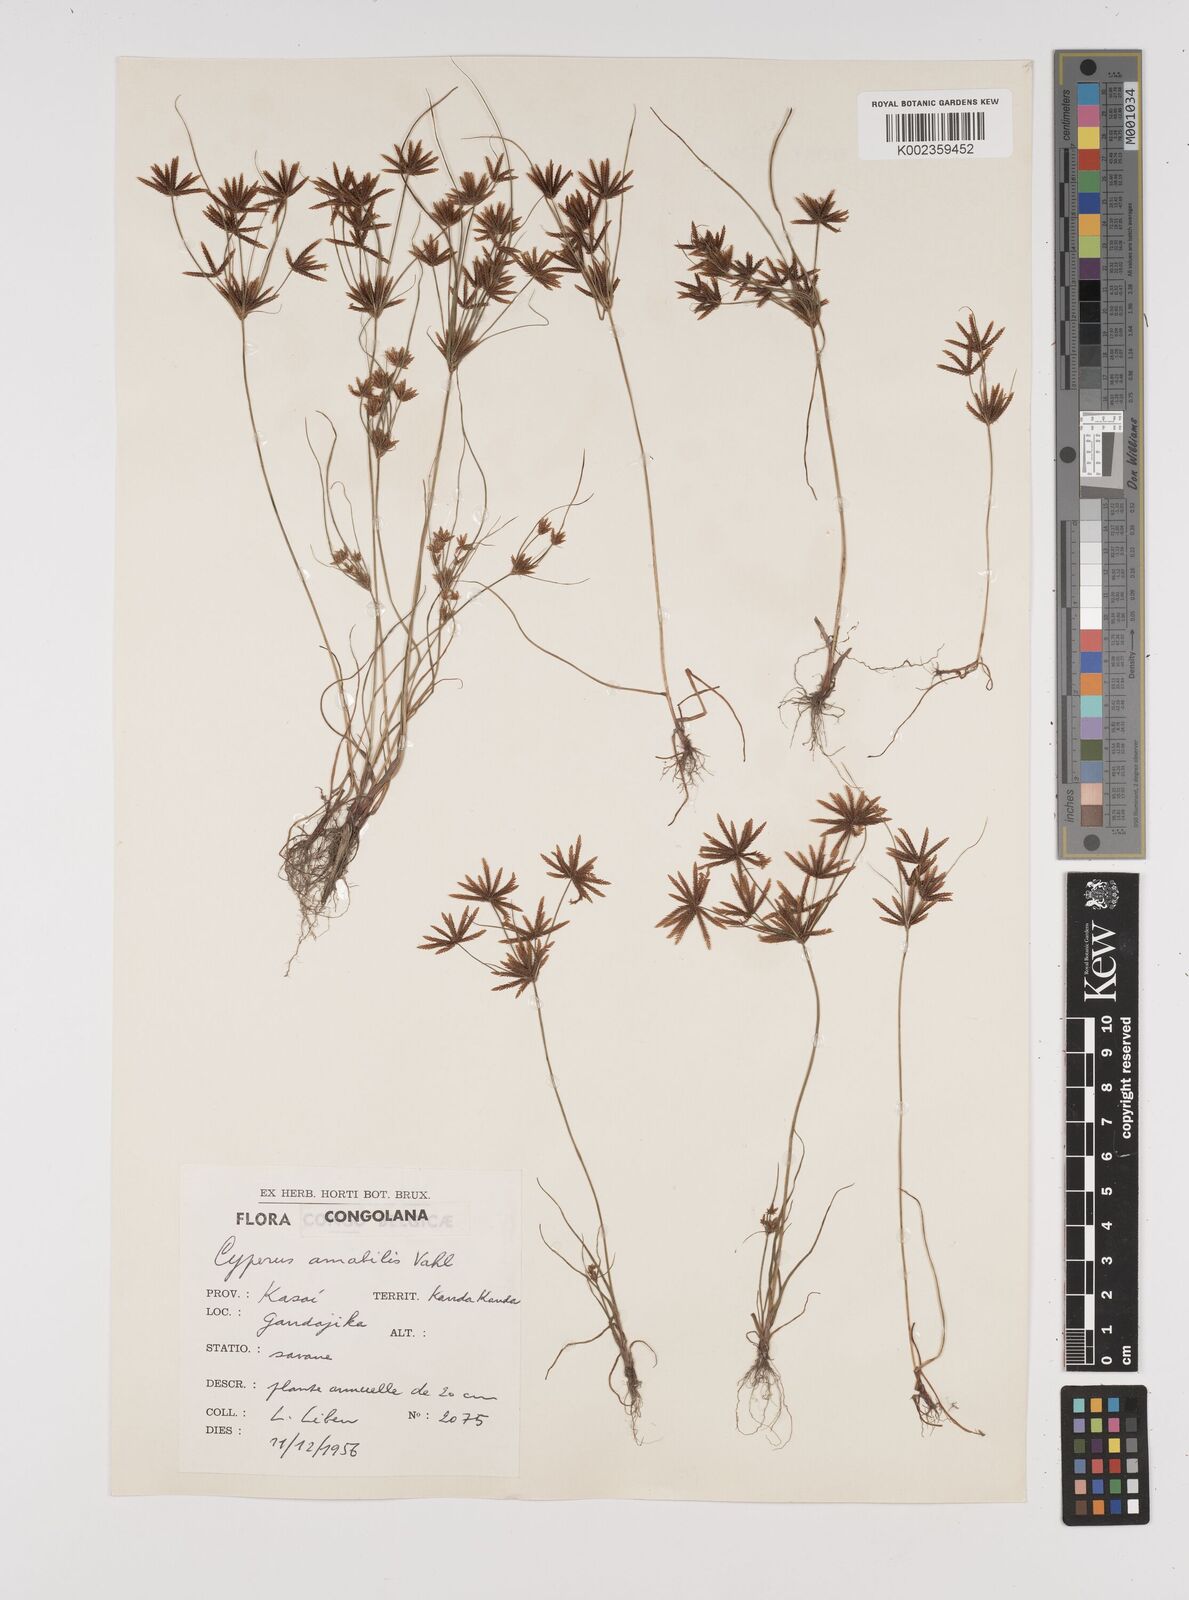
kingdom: Plantae
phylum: Tracheophyta
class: Liliopsida
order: Poales
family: Cyperaceae
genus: Cyperus
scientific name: Cyperus amabilis
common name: Foothill flat sedge
